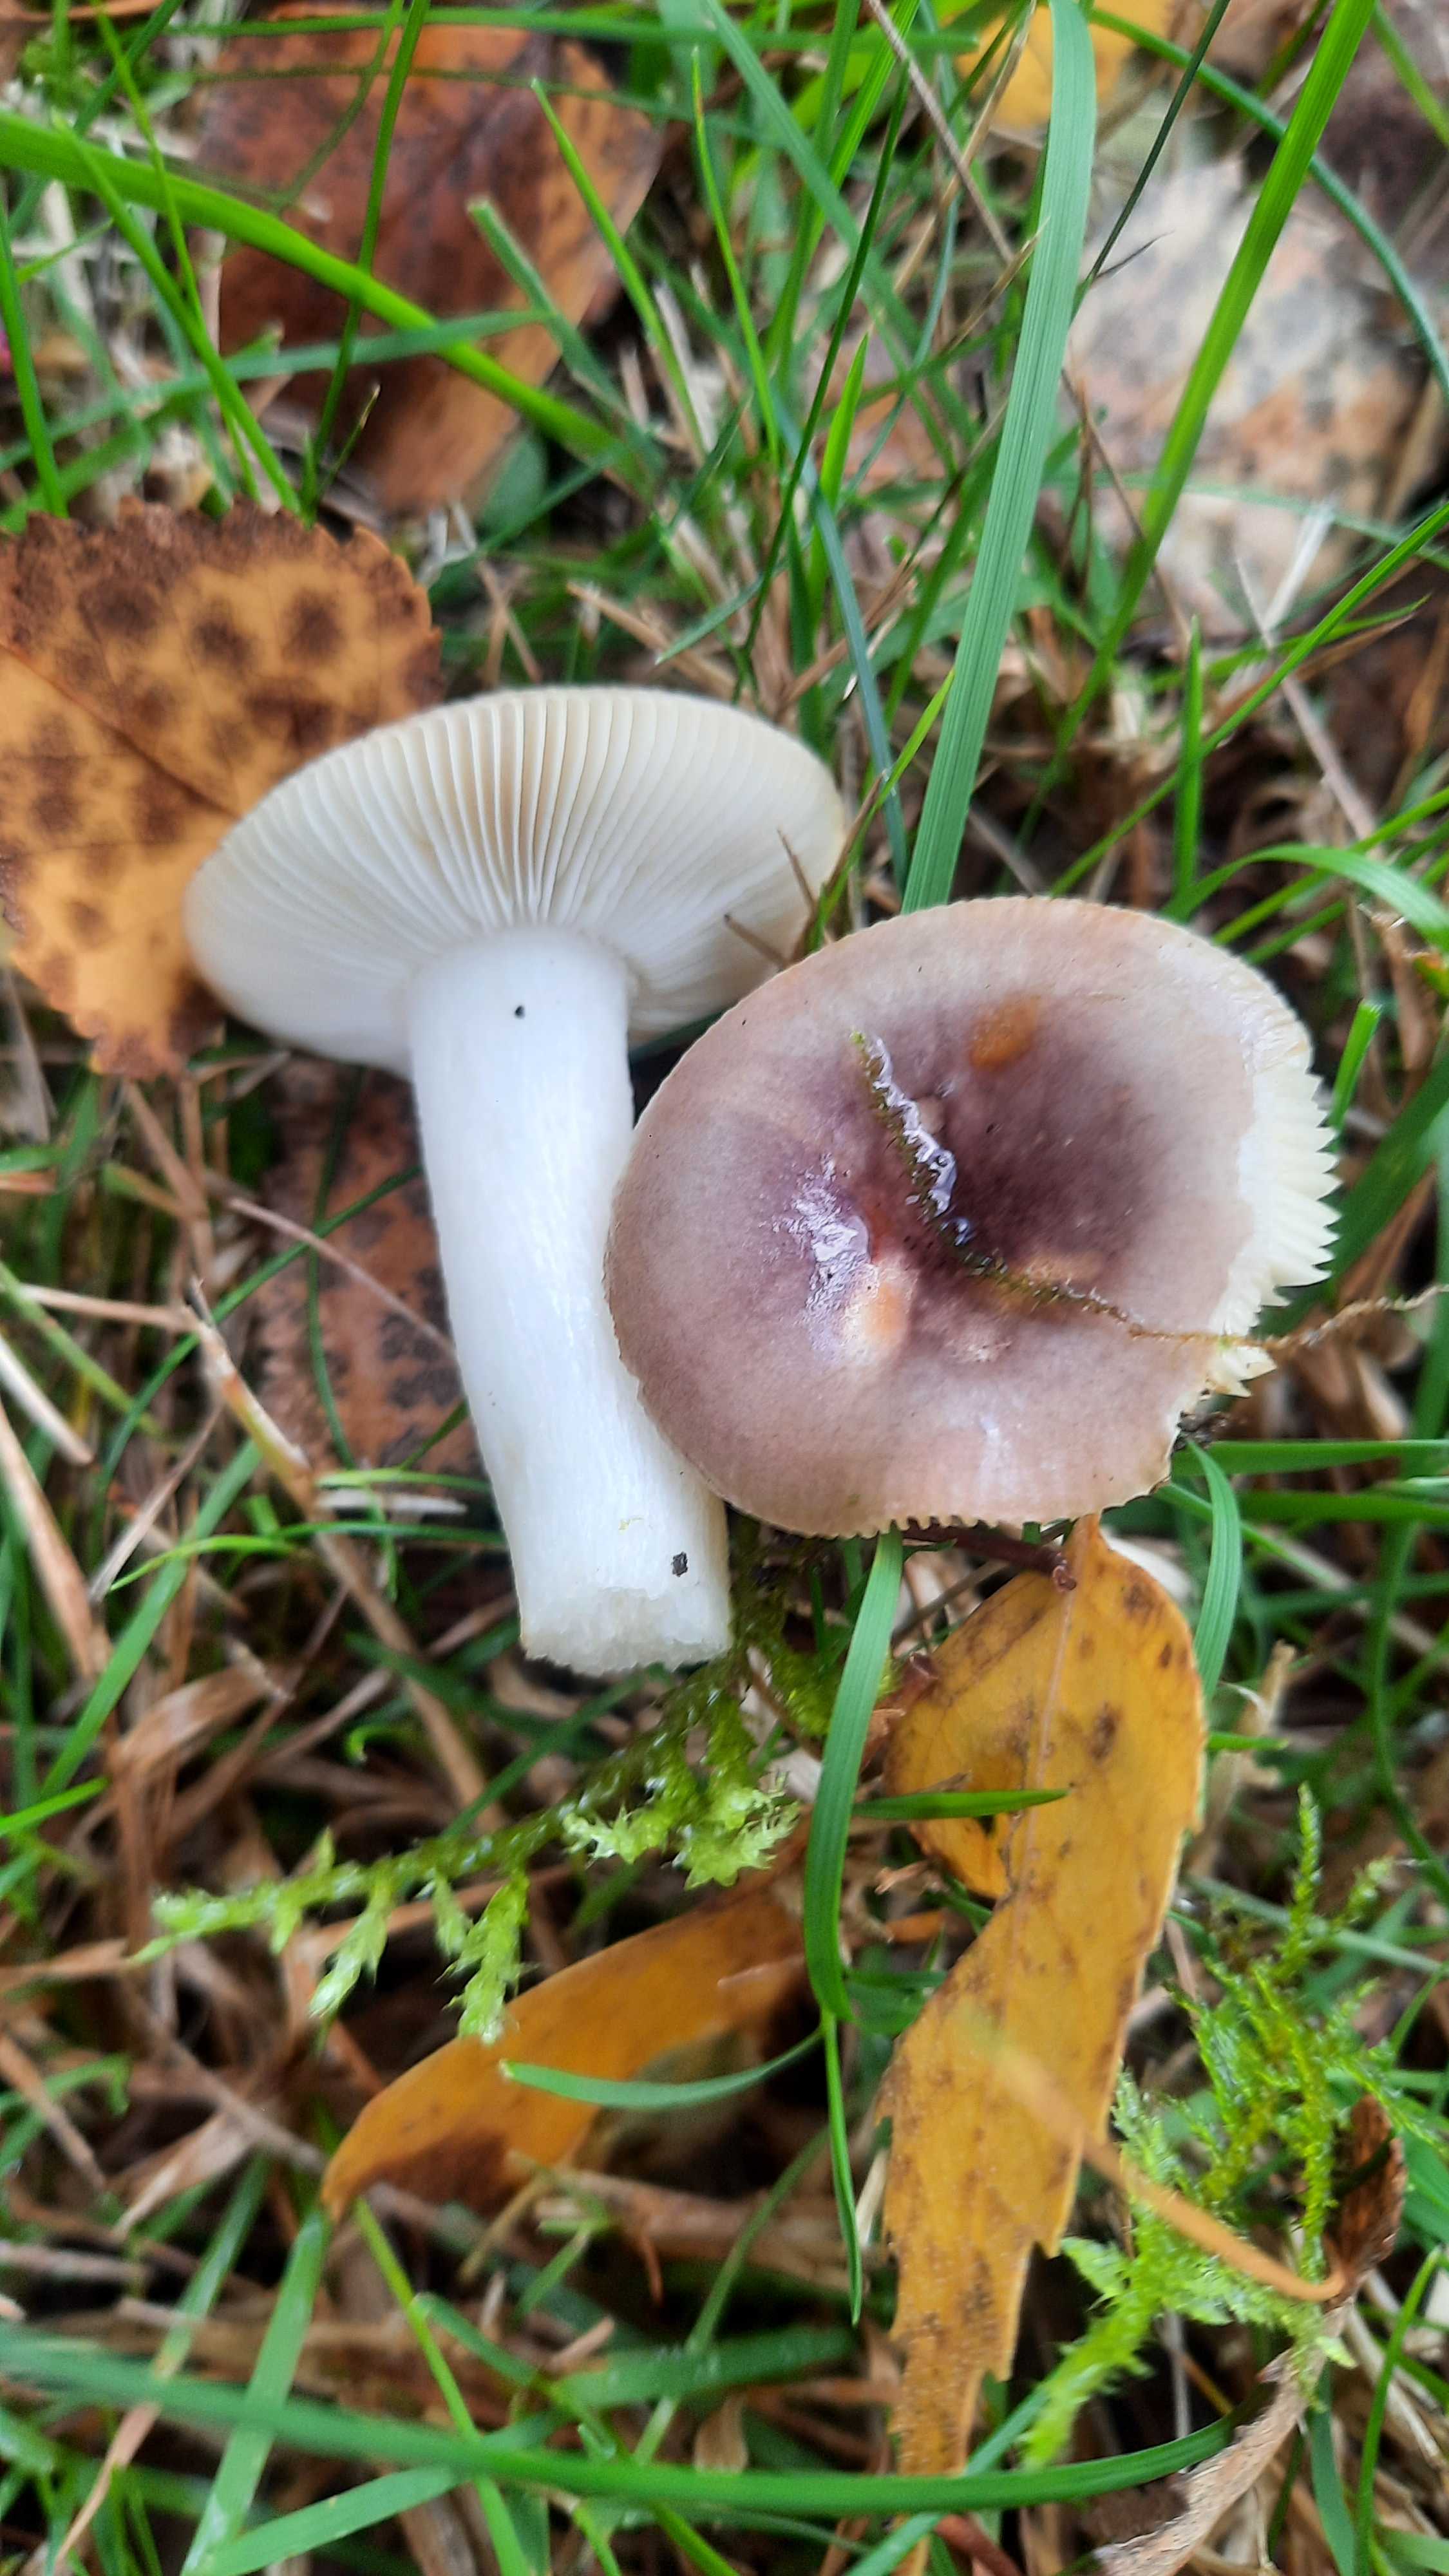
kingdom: Fungi
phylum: Basidiomycota
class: Agaricomycetes
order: Russulales
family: Russulaceae
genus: Russula
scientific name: Russula
